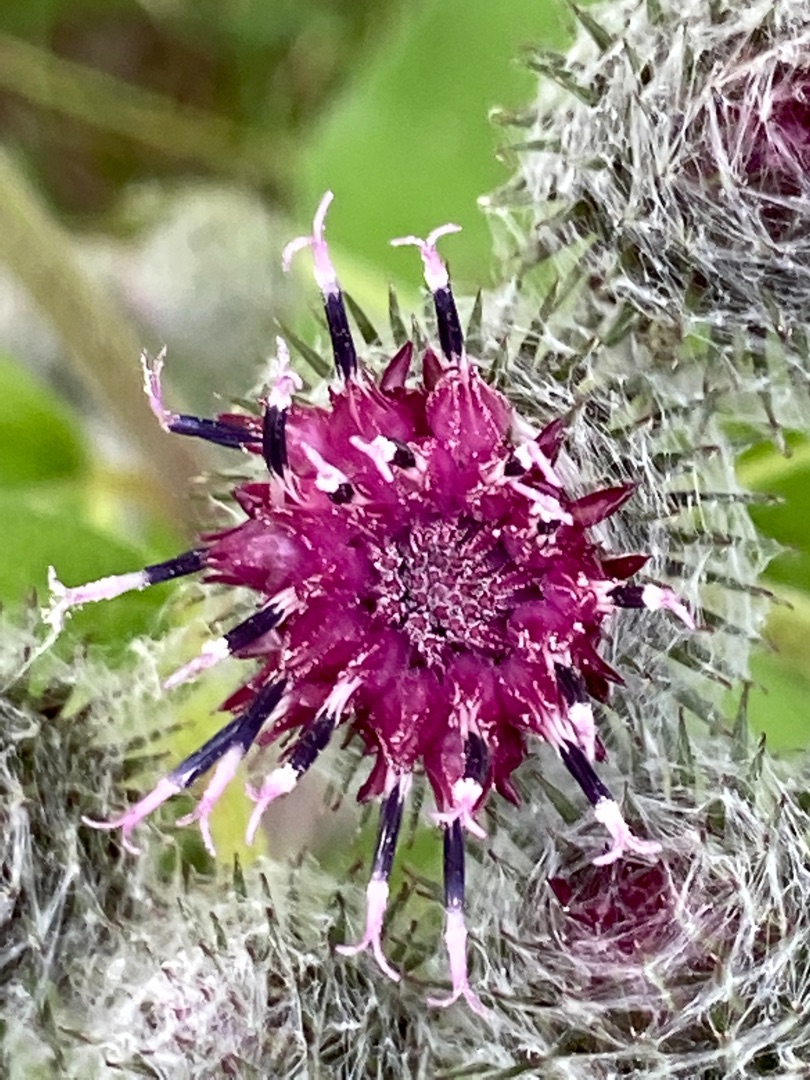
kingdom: Plantae
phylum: Tracheophyta
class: Magnoliopsida
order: Asterales
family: Asteraceae
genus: Arctium
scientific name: Arctium tomentosum
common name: Filtet burre
